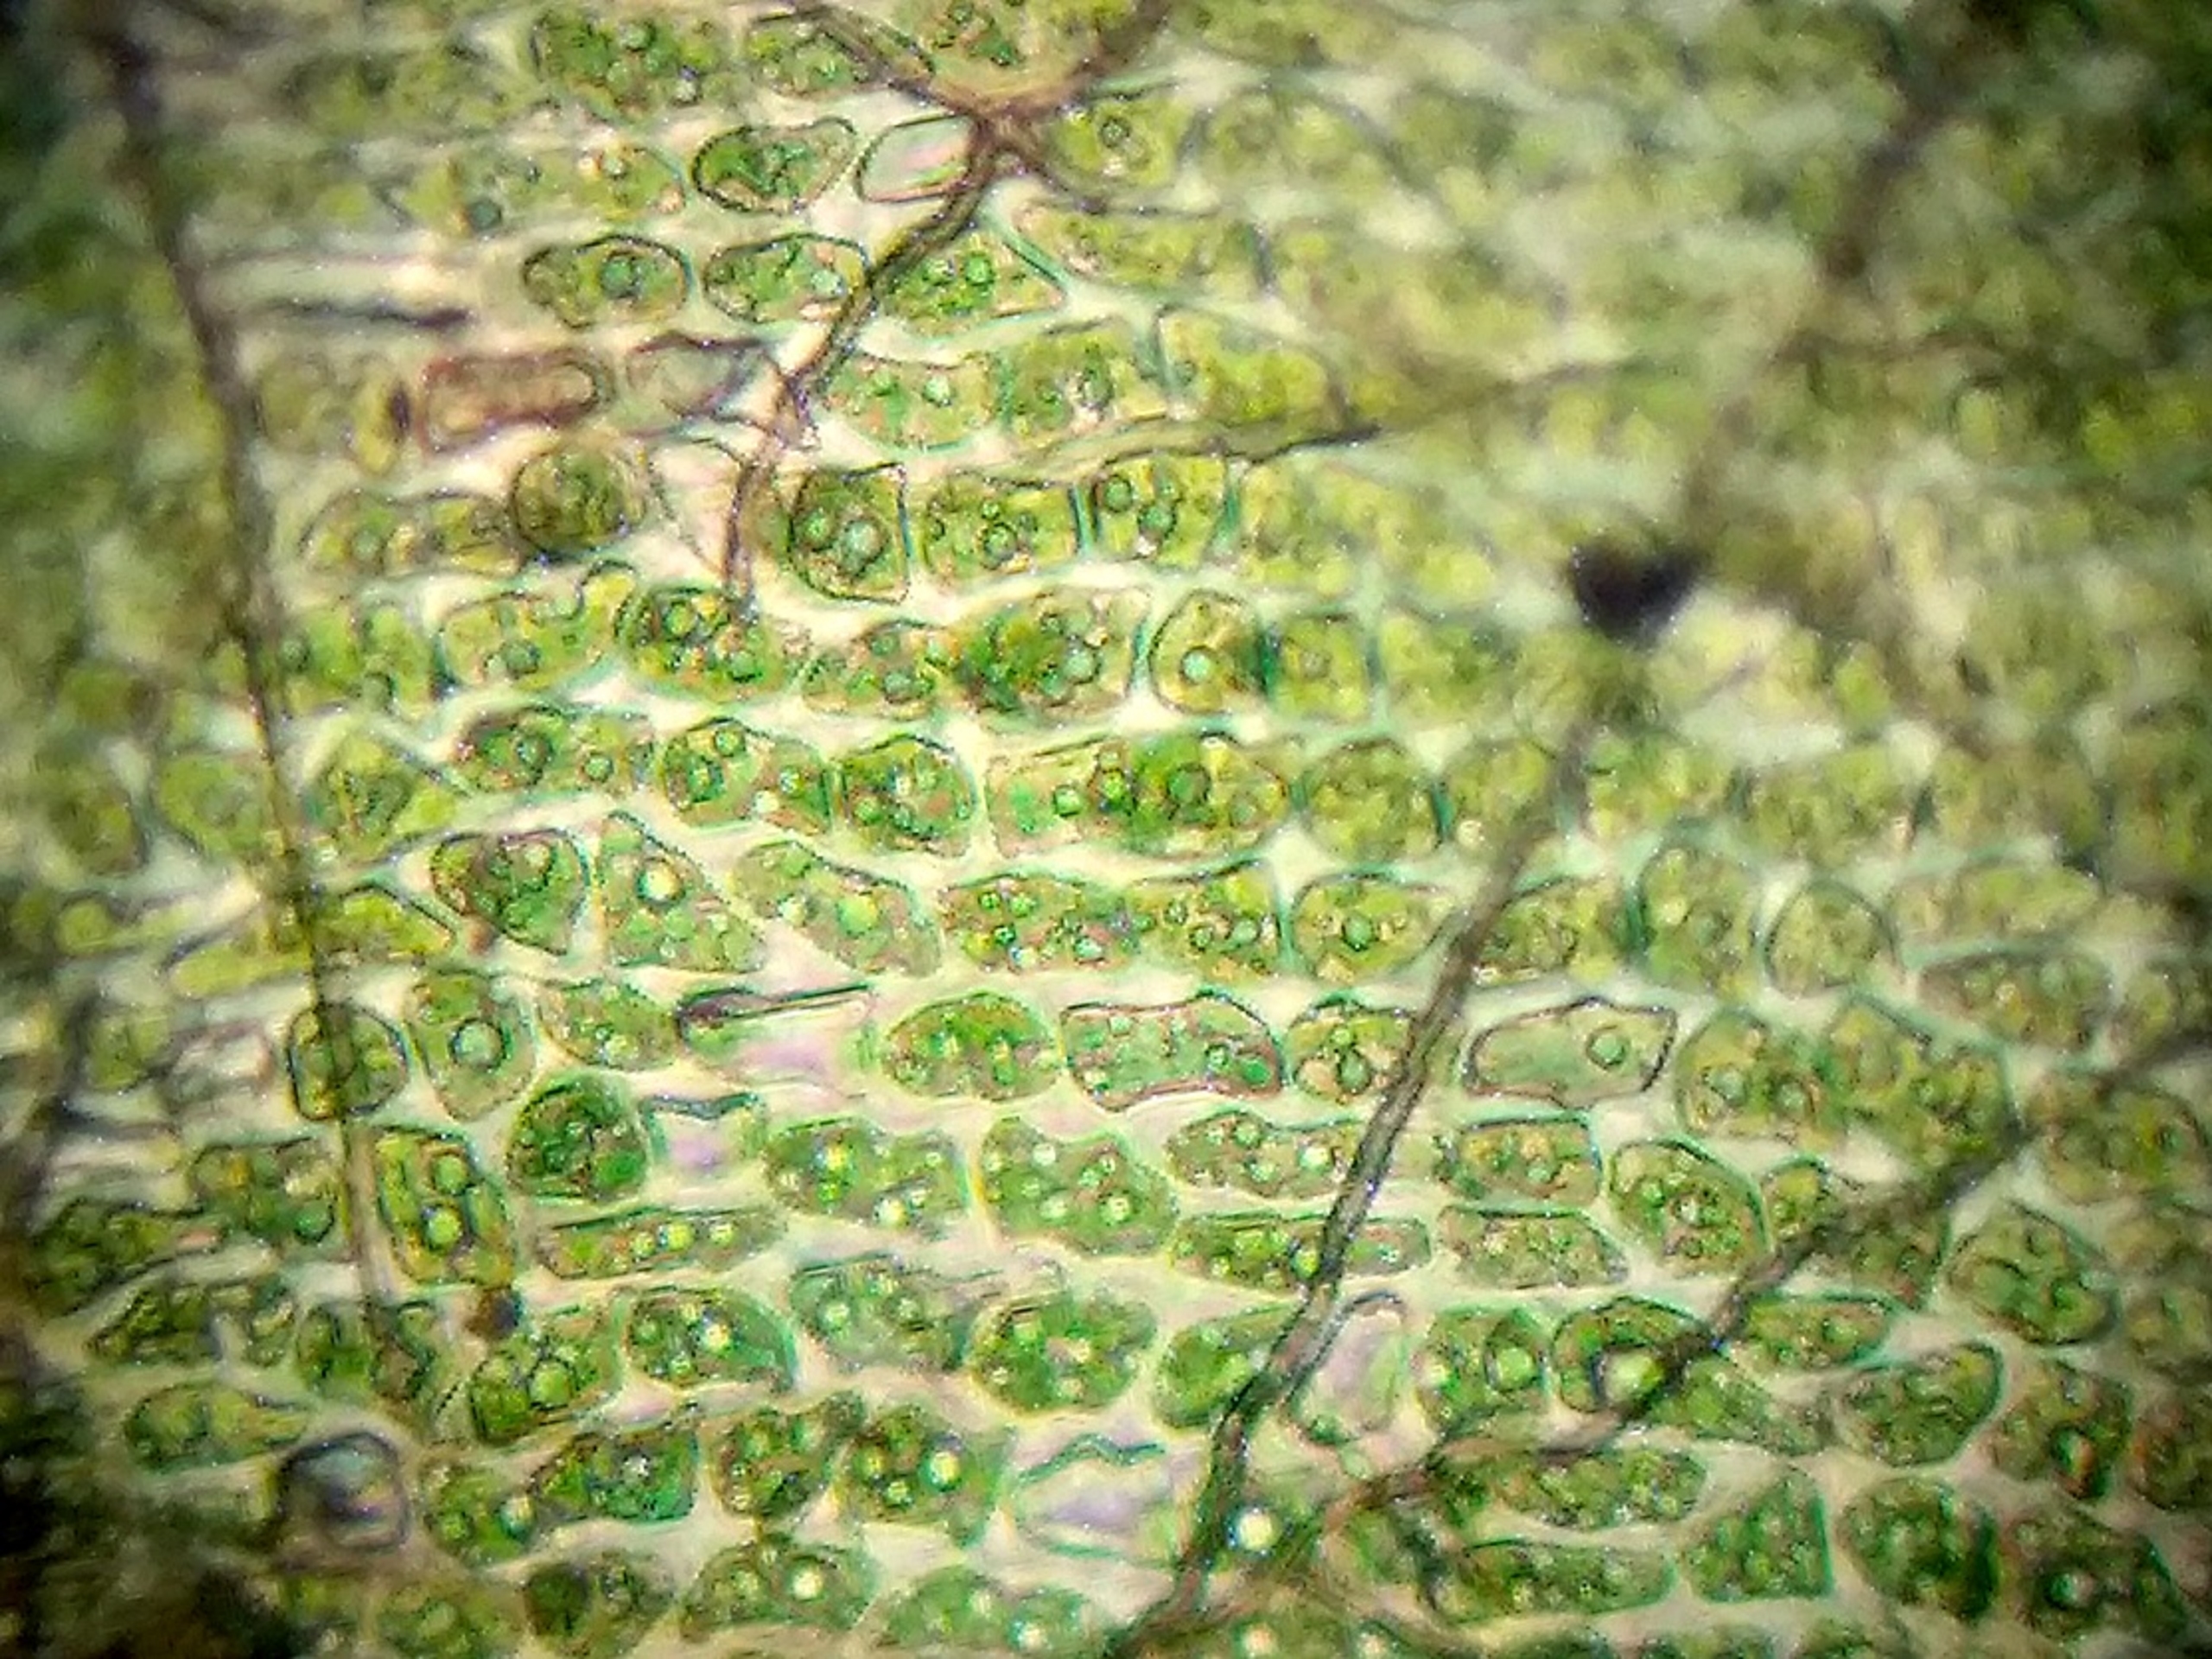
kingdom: Plantae
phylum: Bryophyta
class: Bryopsida
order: Dicranales
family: Dicranaceae
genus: Dicranum
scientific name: Dicranum spurium
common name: Hede-kløvtand
